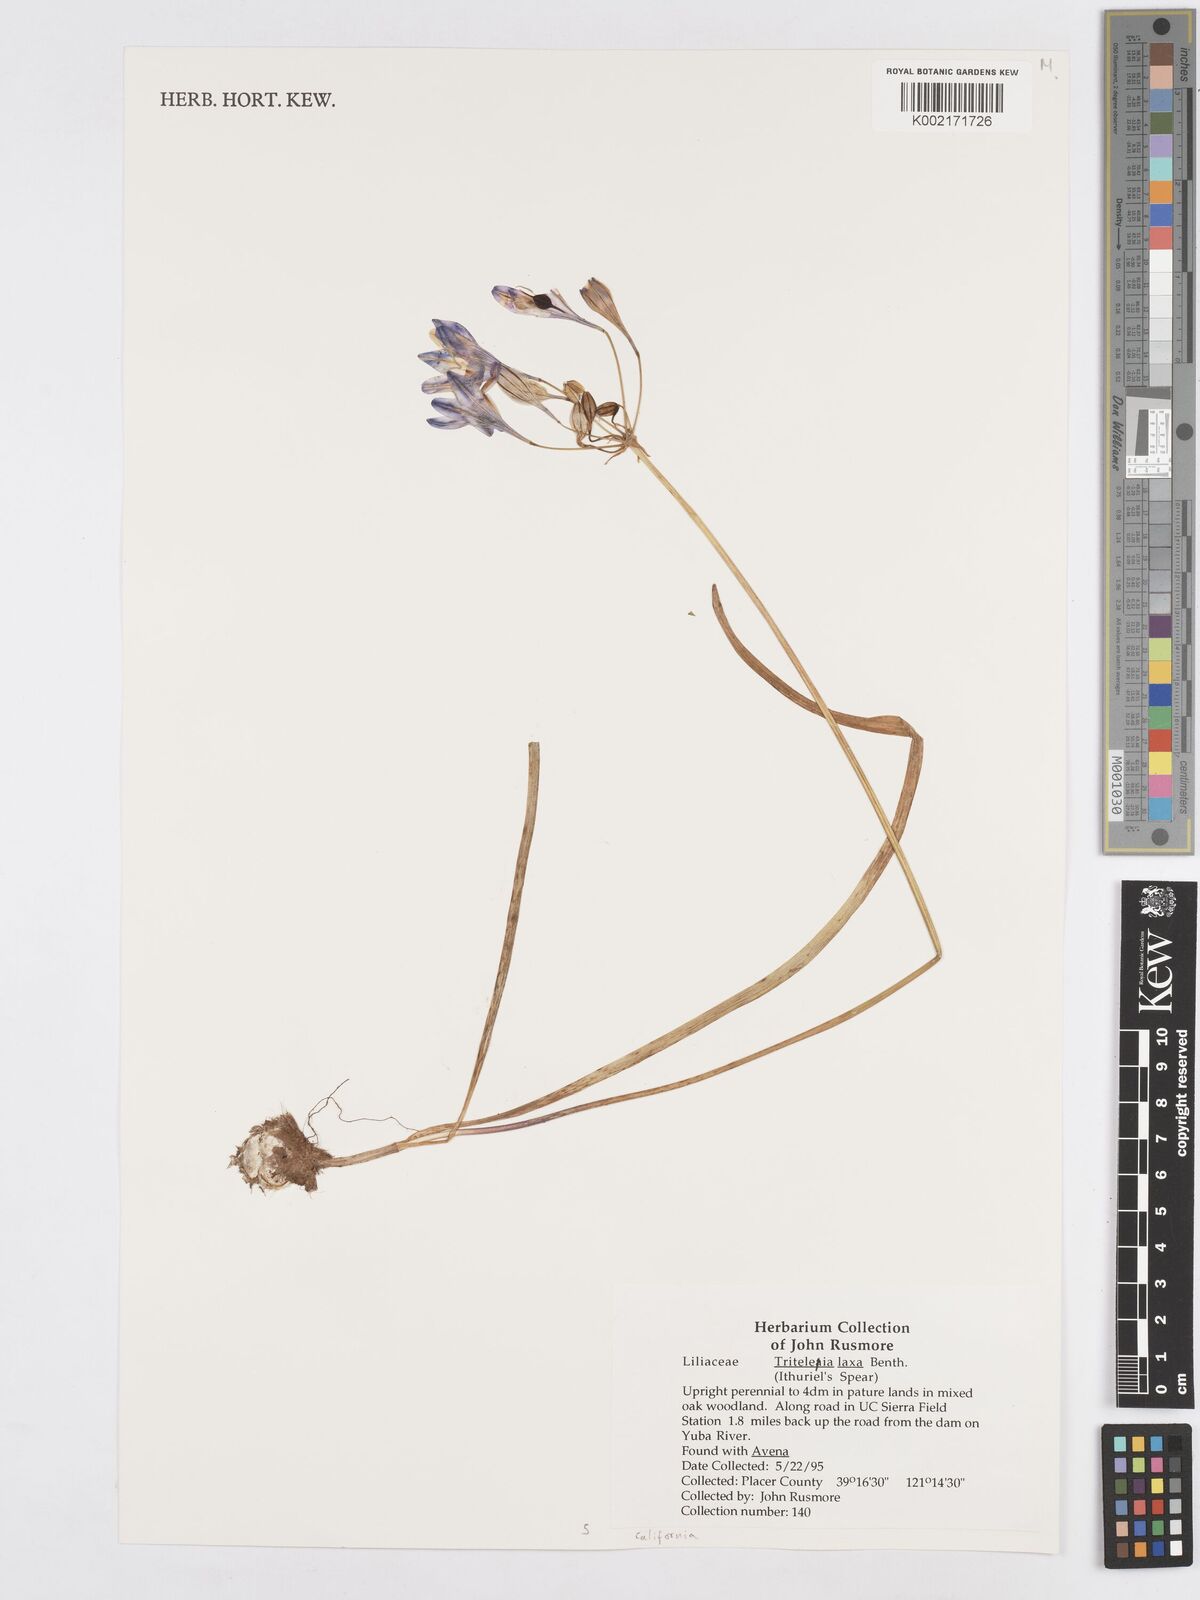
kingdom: Plantae
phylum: Tracheophyta
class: Liliopsida
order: Asparagales
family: Asparagaceae
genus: Triteleia
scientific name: Triteleia laxa
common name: Triplet-lily
